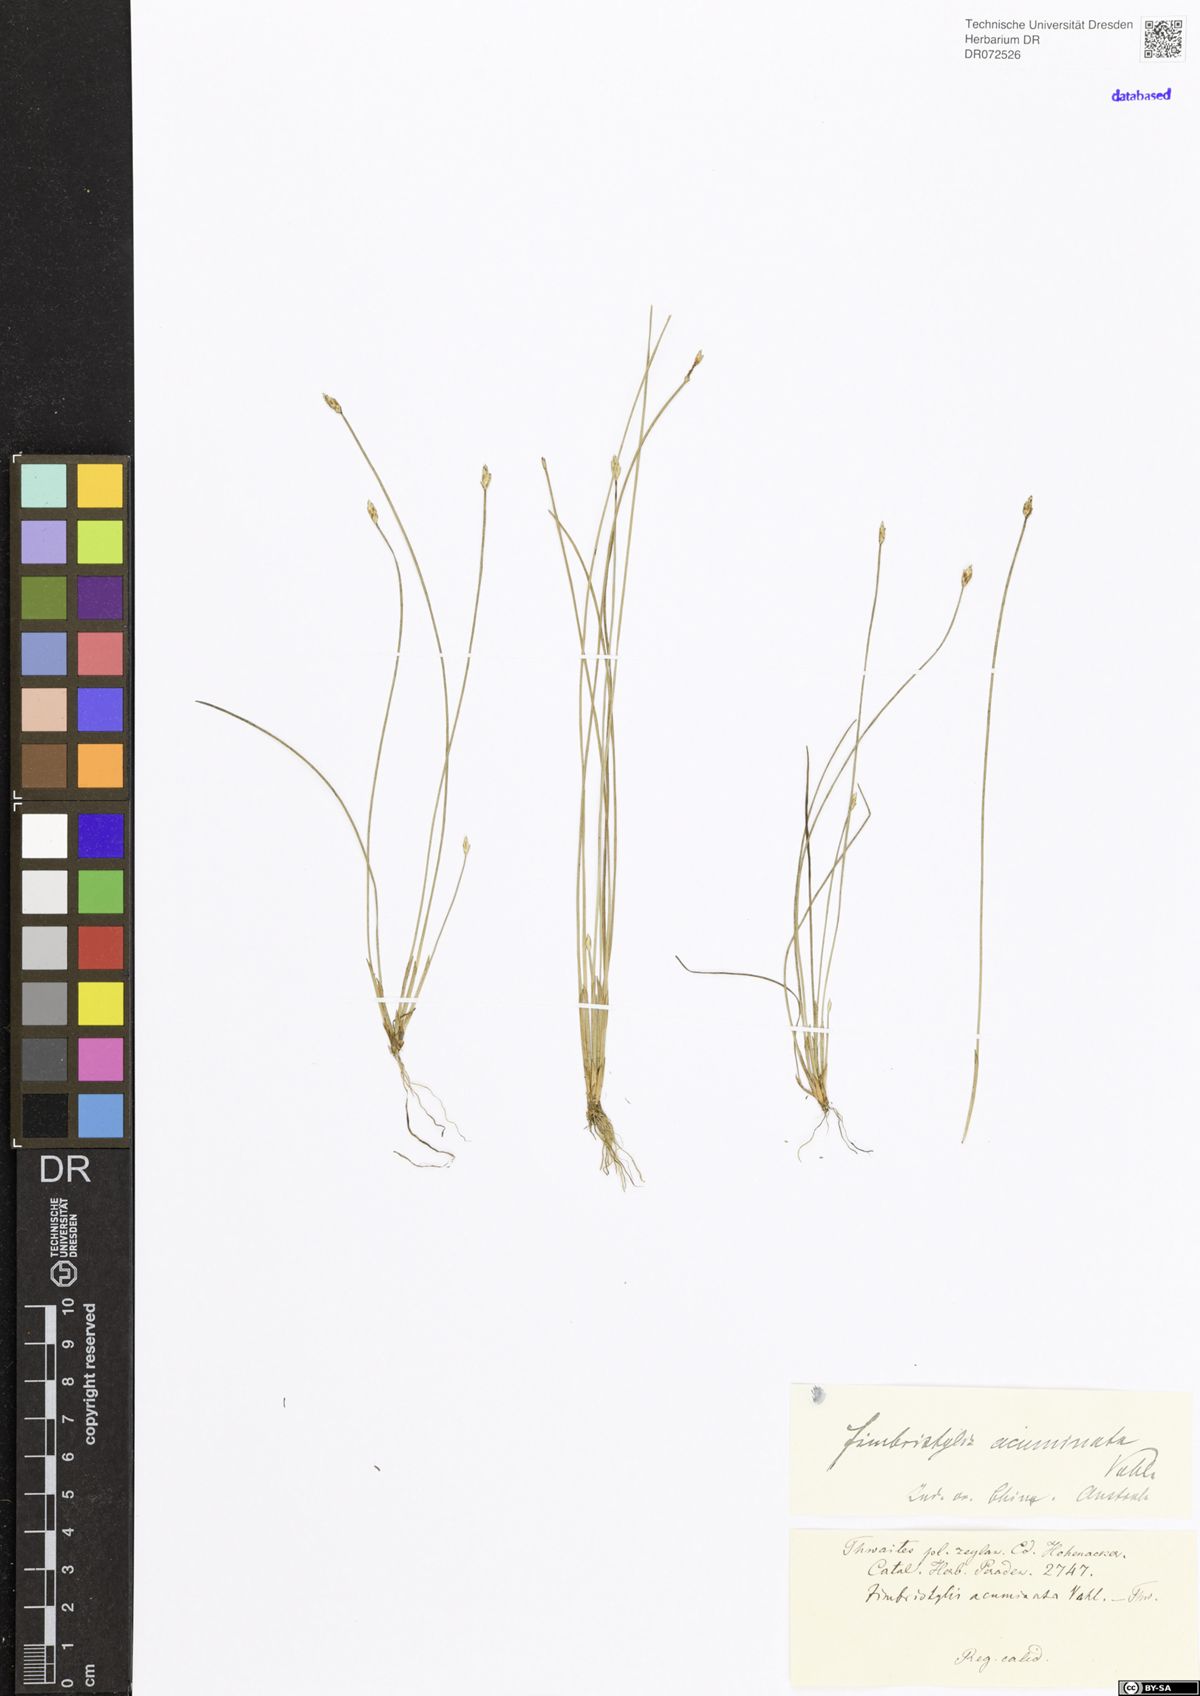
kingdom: Plantae
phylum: Tracheophyta
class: Liliopsida
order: Poales
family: Cyperaceae
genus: Fimbristylis
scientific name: Fimbristylis acuminata
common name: Pointed fimbristylis
